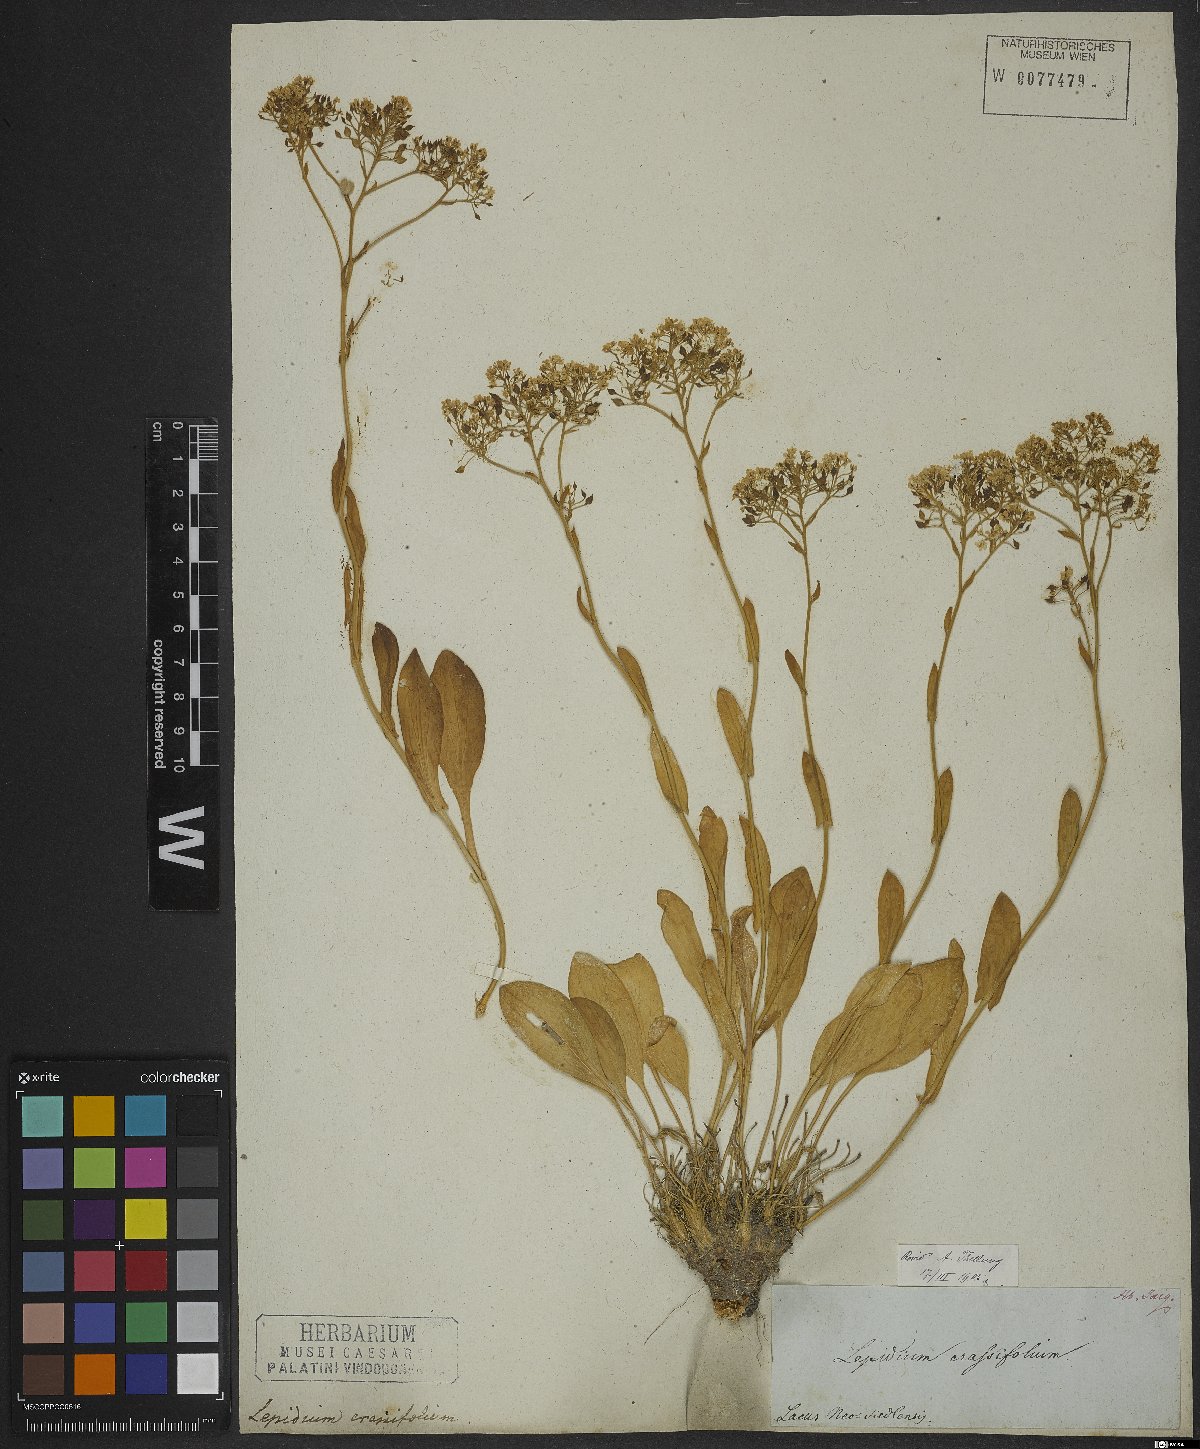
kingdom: Plantae
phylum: Tracheophyta
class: Magnoliopsida
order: Brassicales
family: Brassicaceae
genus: Lepidium
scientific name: Lepidium cartilagineum
